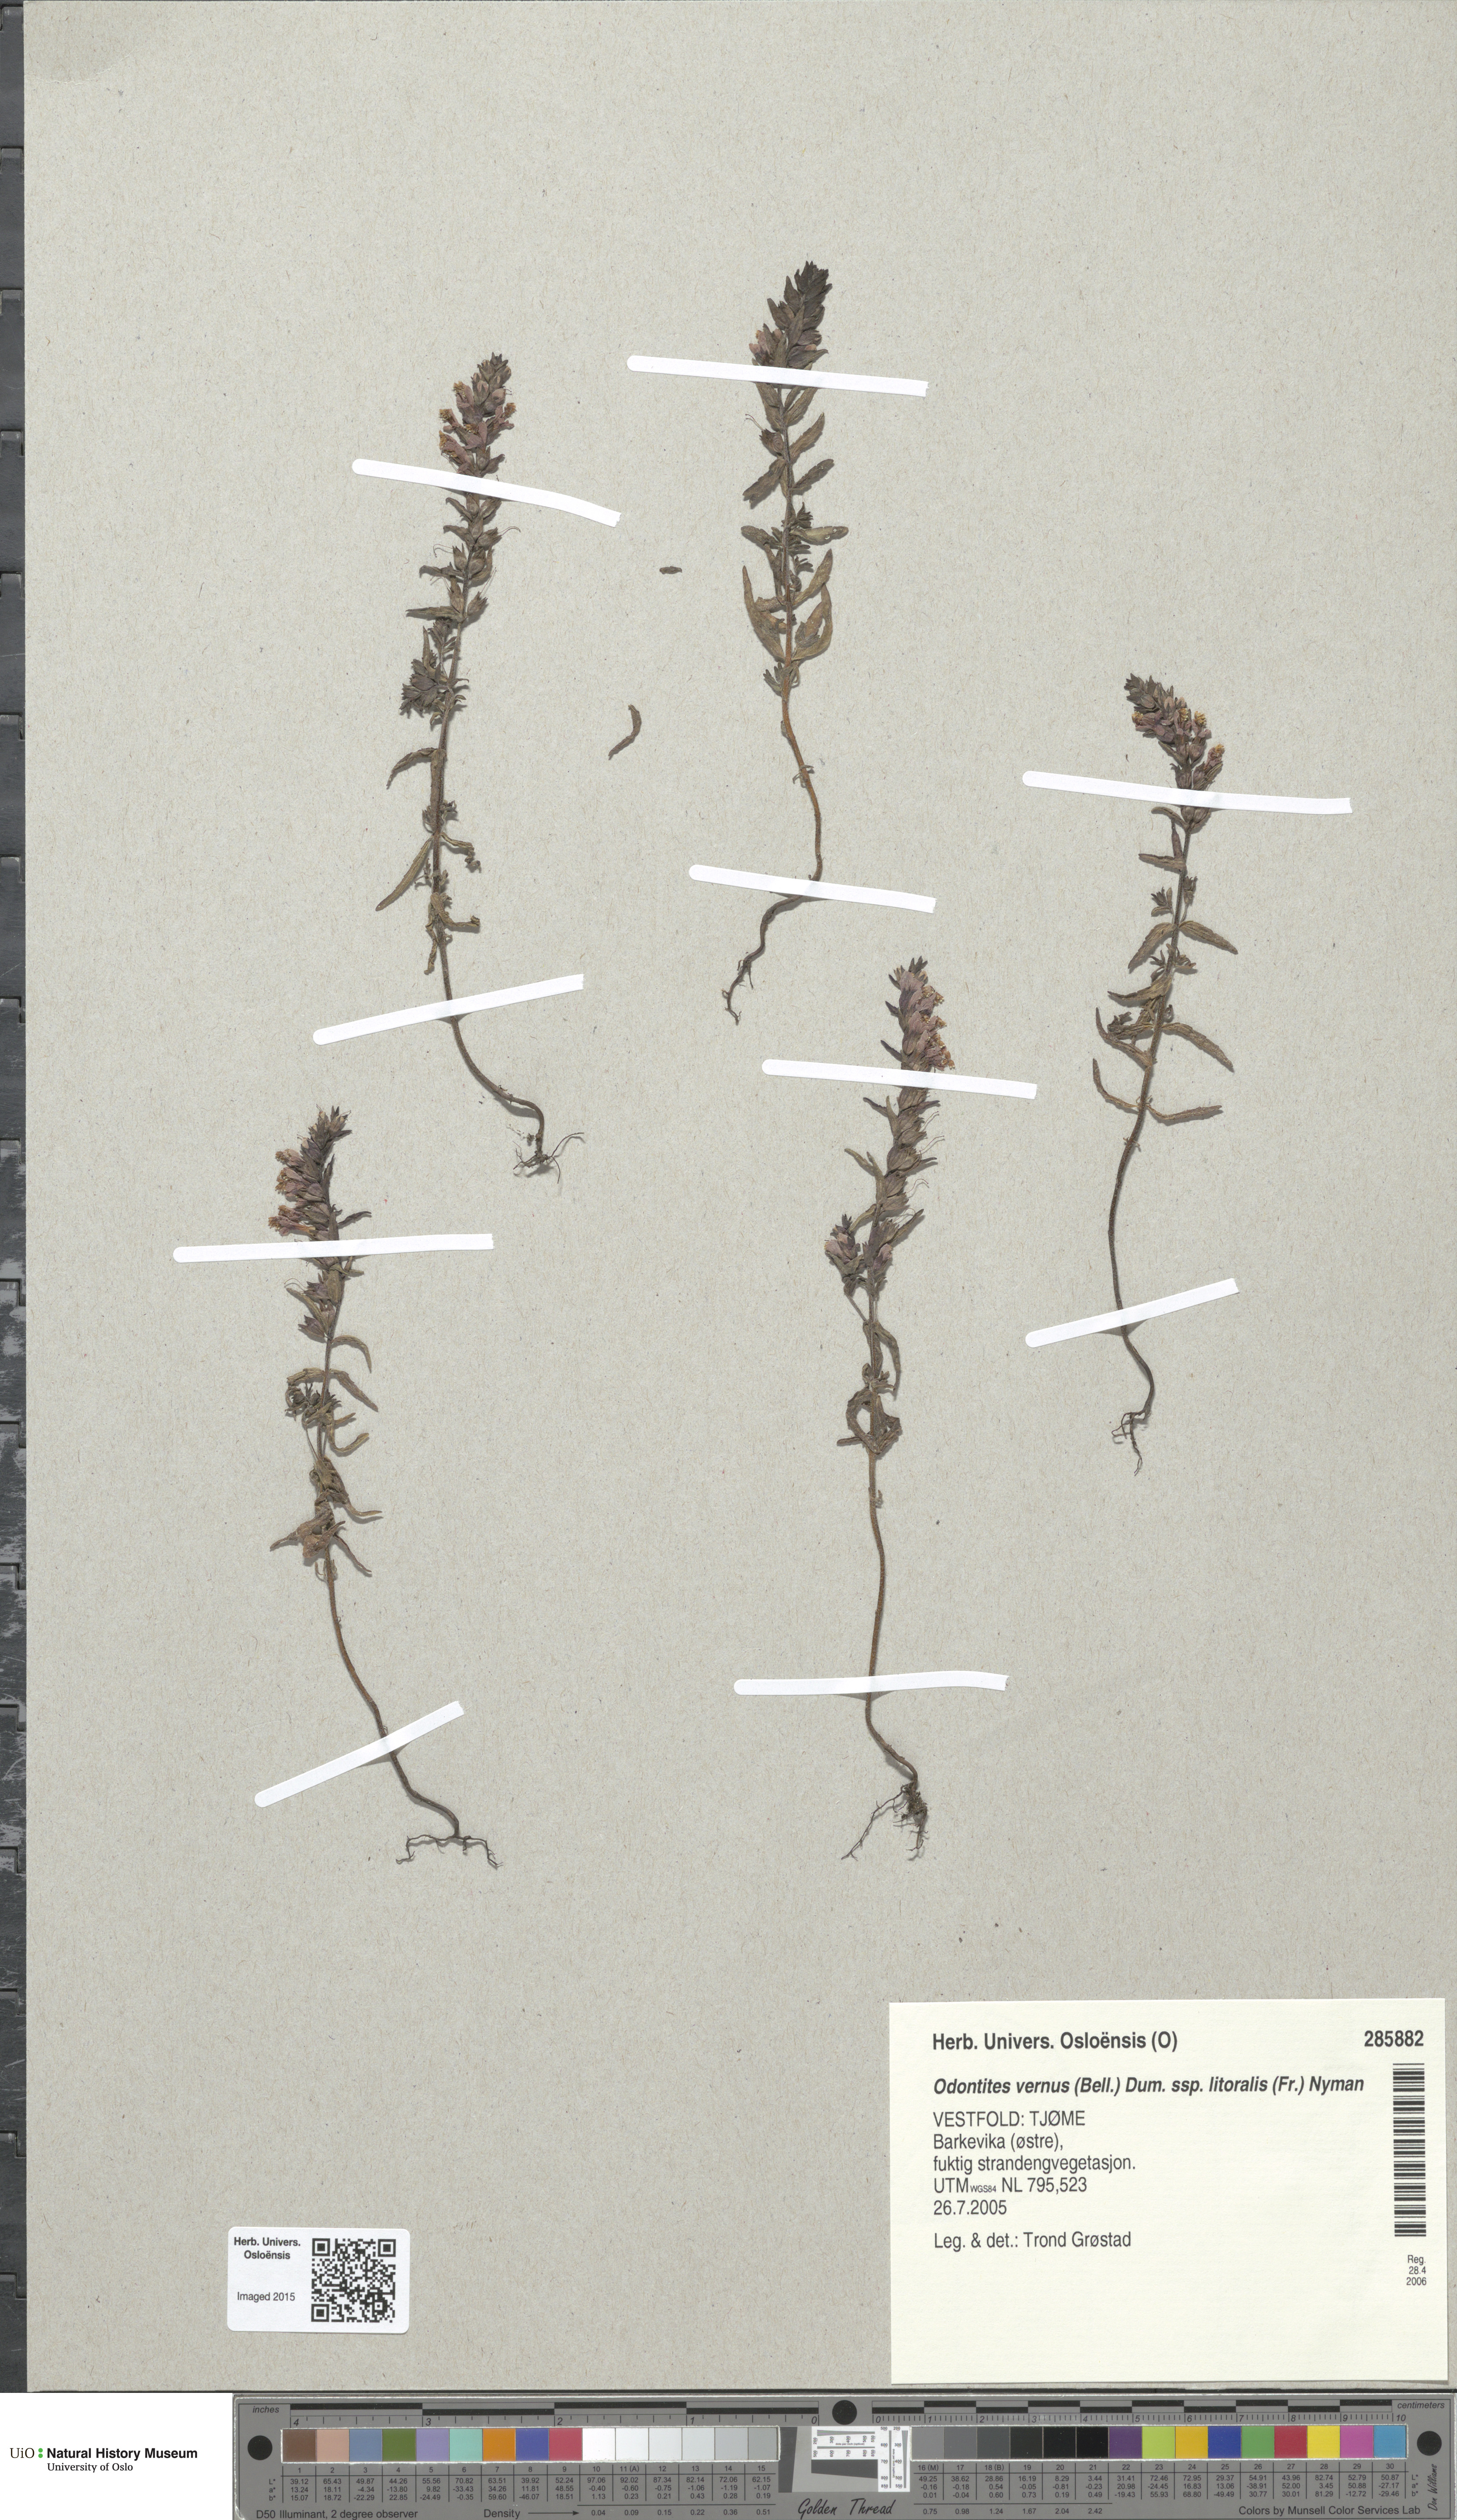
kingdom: Plantae
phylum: Tracheophyta
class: Magnoliopsida
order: Lamiales
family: Orobanchaceae
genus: Odontites
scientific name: Odontites litoralis
